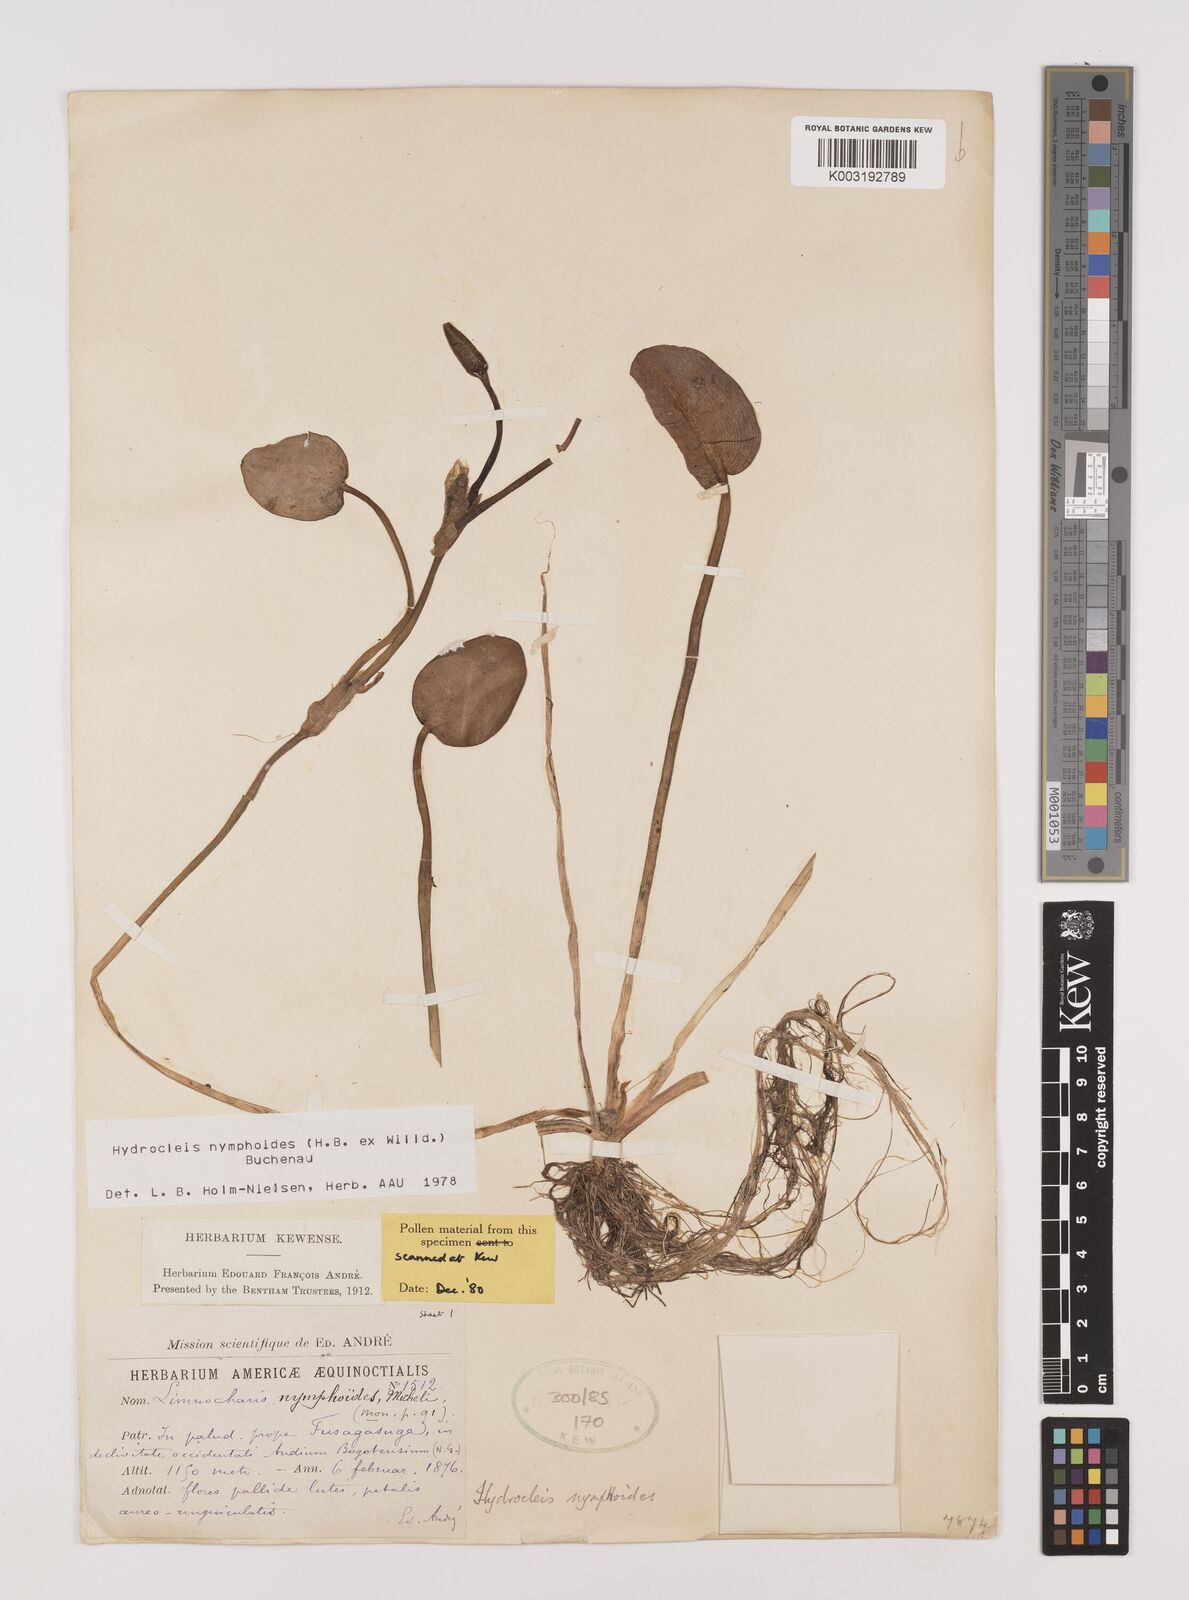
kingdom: Plantae
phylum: Tracheophyta
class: Liliopsida
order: Alismatales
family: Alismataceae
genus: Hydrocleys
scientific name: Hydrocleys nymphoides
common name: Water-poppy
